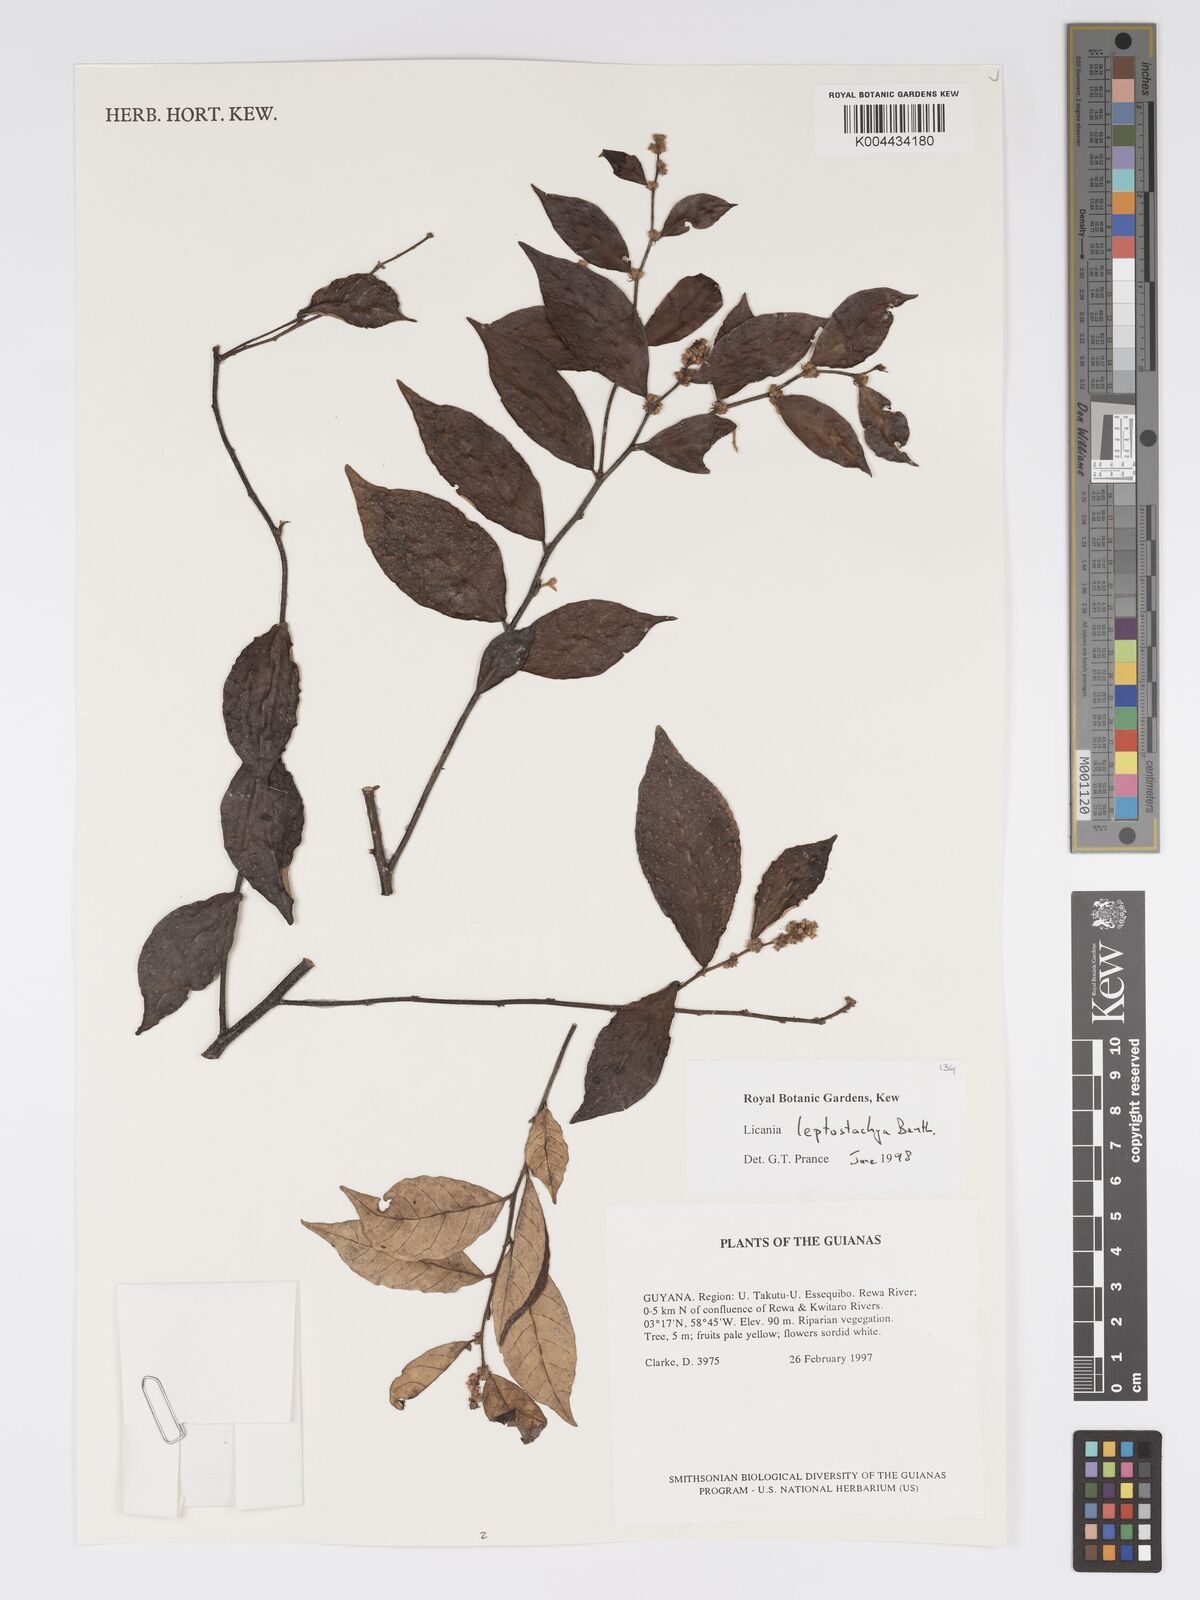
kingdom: Plantae
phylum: Tracheophyta
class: Magnoliopsida
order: Malpighiales
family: Chrysobalanaceae
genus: Licania
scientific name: Licania leptostachya
